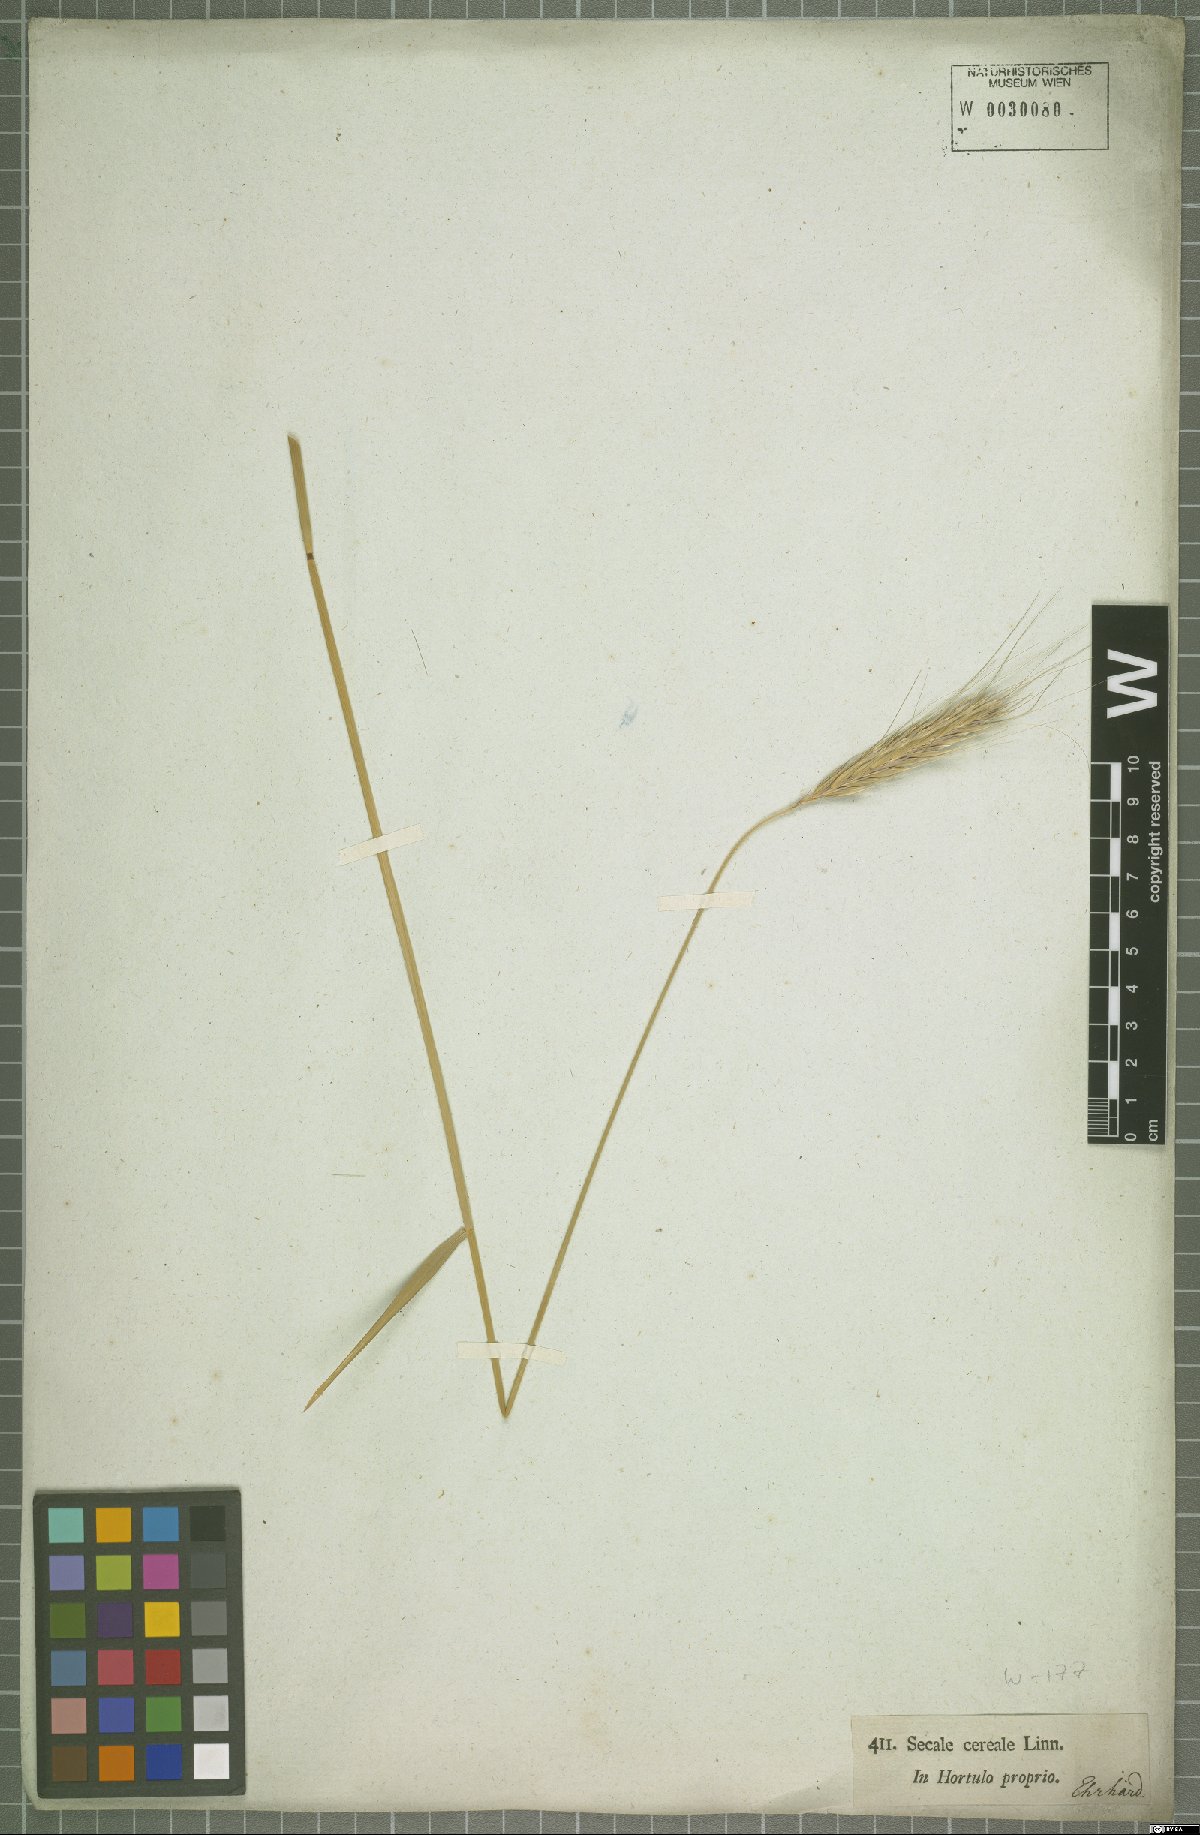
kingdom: Plantae
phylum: Tracheophyta
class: Liliopsida
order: Poales
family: Poaceae
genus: Secale
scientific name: Secale cereale
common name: Rye
